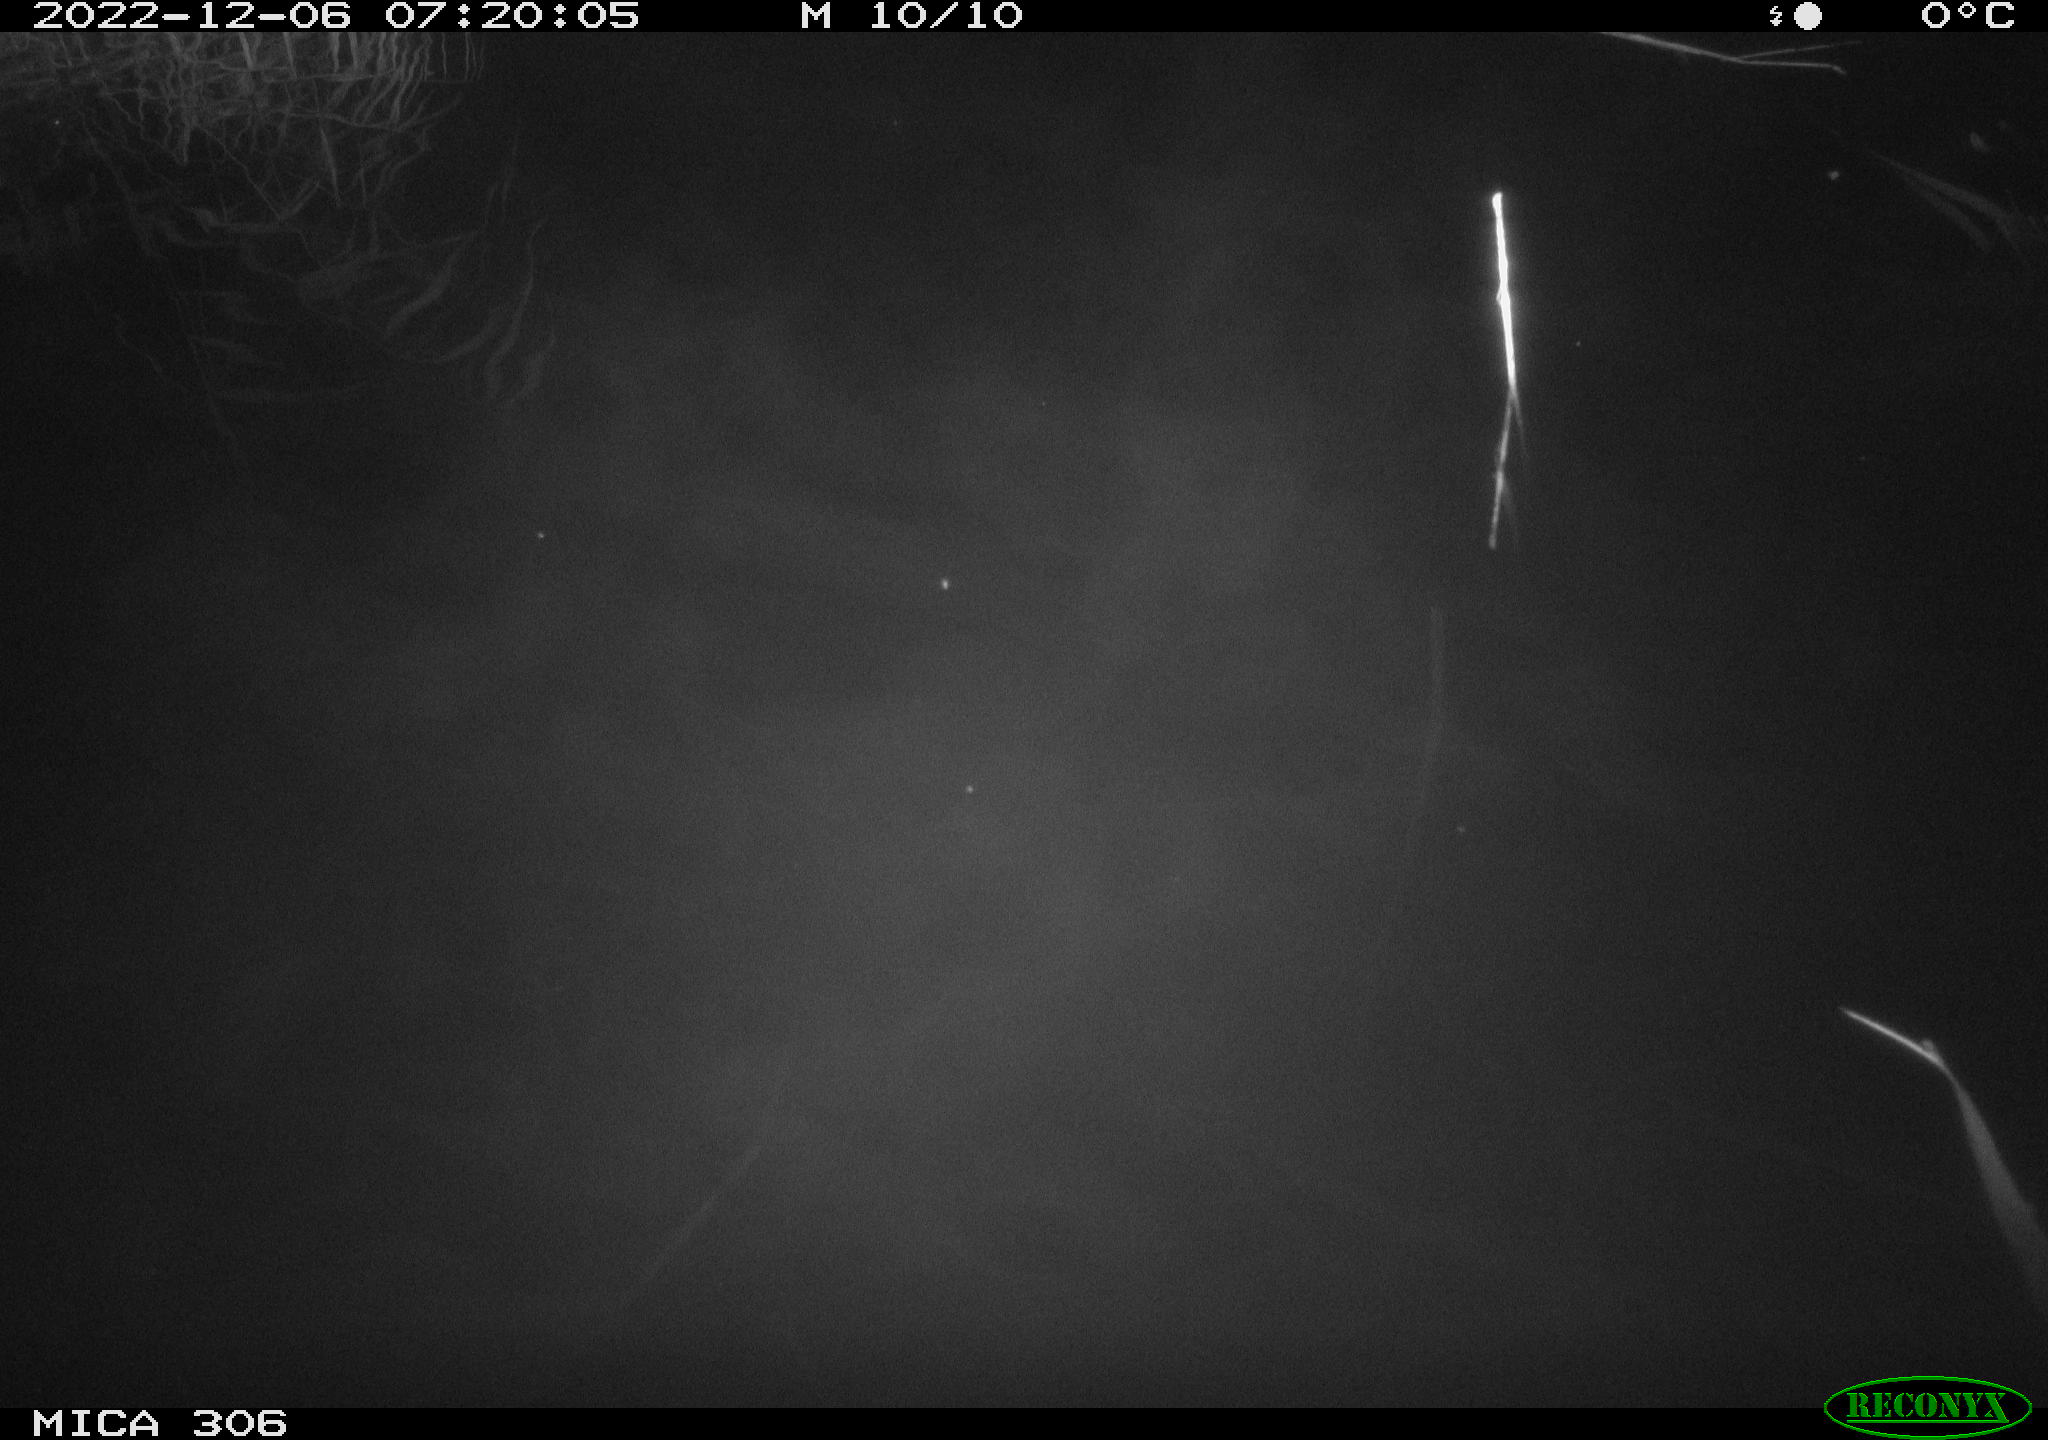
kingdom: Animalia
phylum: Chordata
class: Mammalia
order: Rodentia
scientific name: Rodentia
